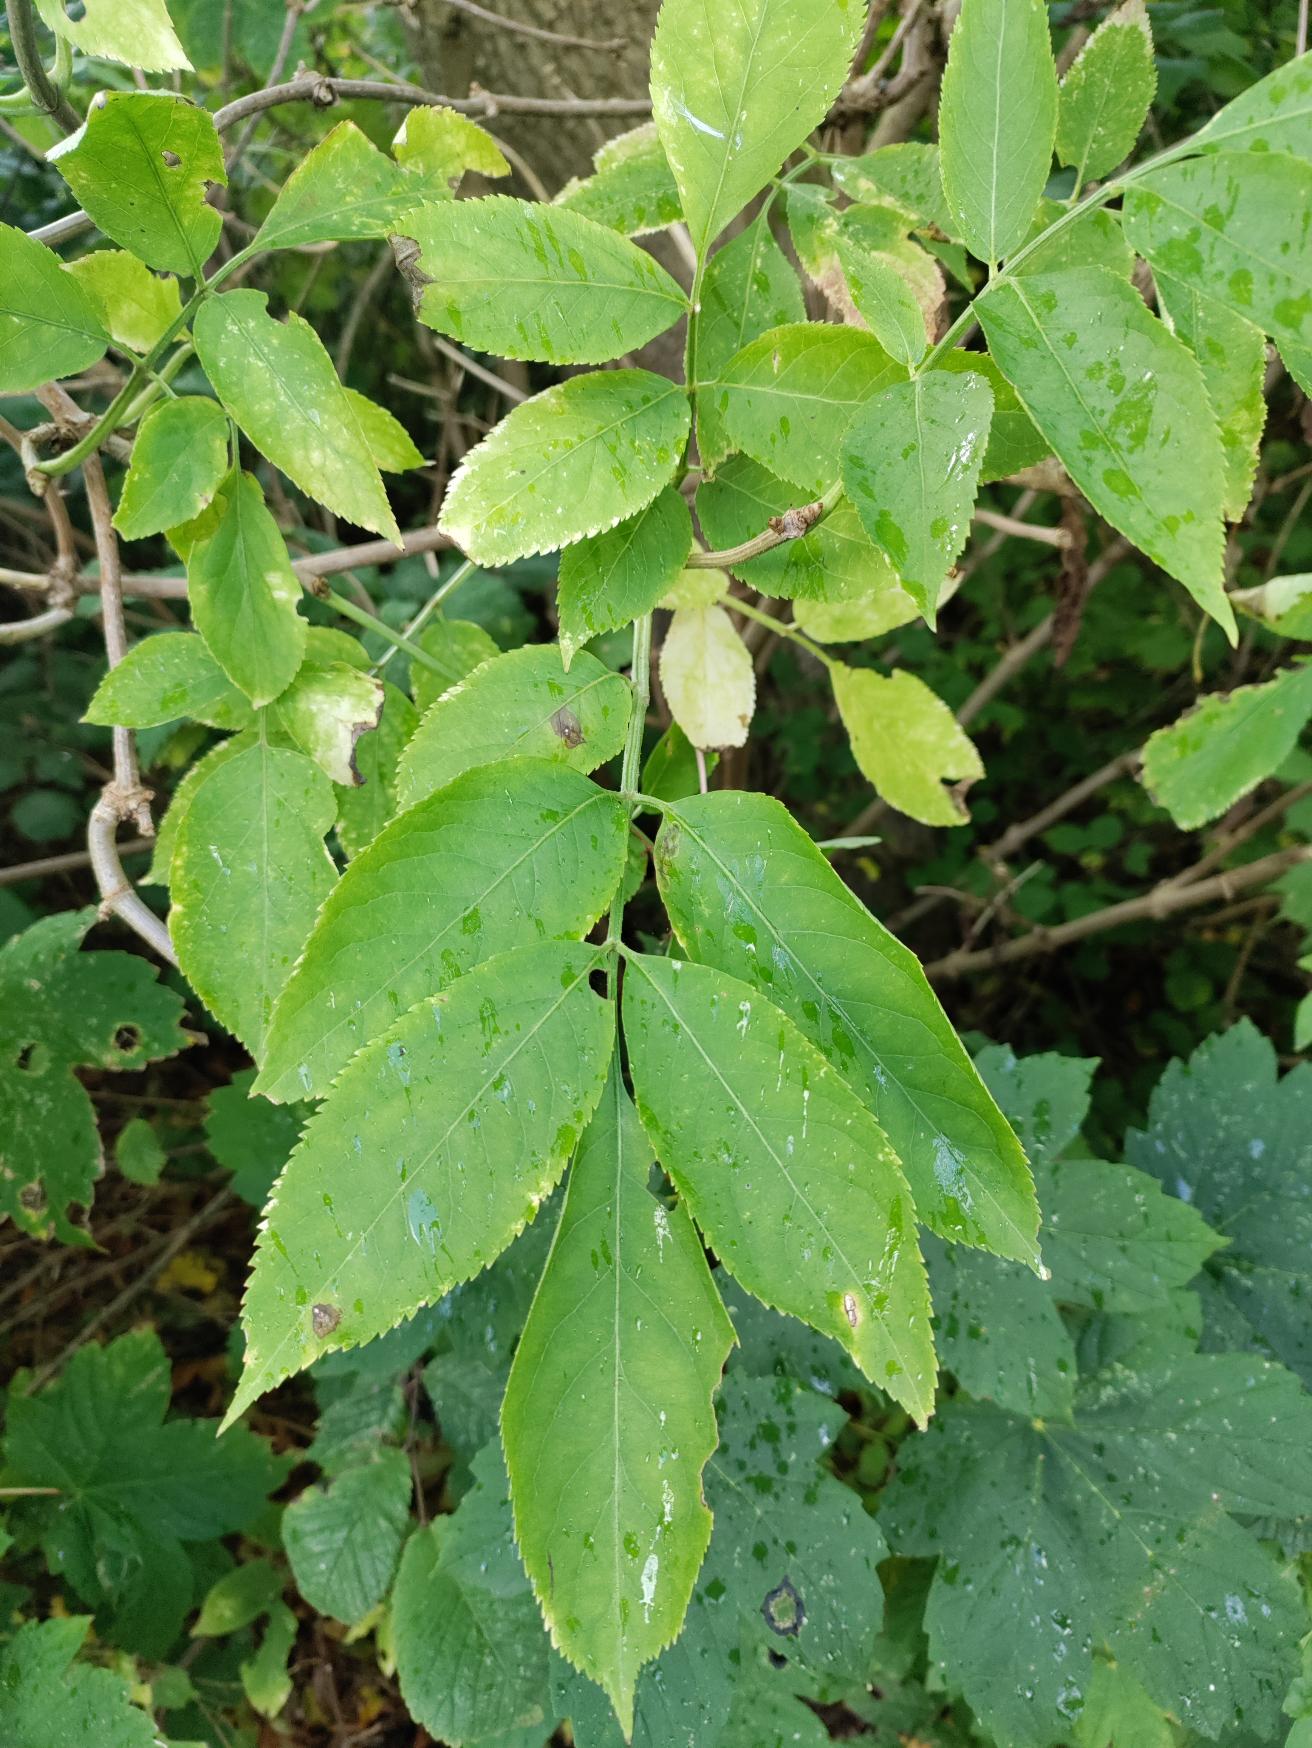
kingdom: Plantae
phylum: Tracheophyta
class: Magnoliopsida
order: Dipsacales
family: Viburnaceae
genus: Sambucus
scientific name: Sambucus
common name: Hyldeslægten
